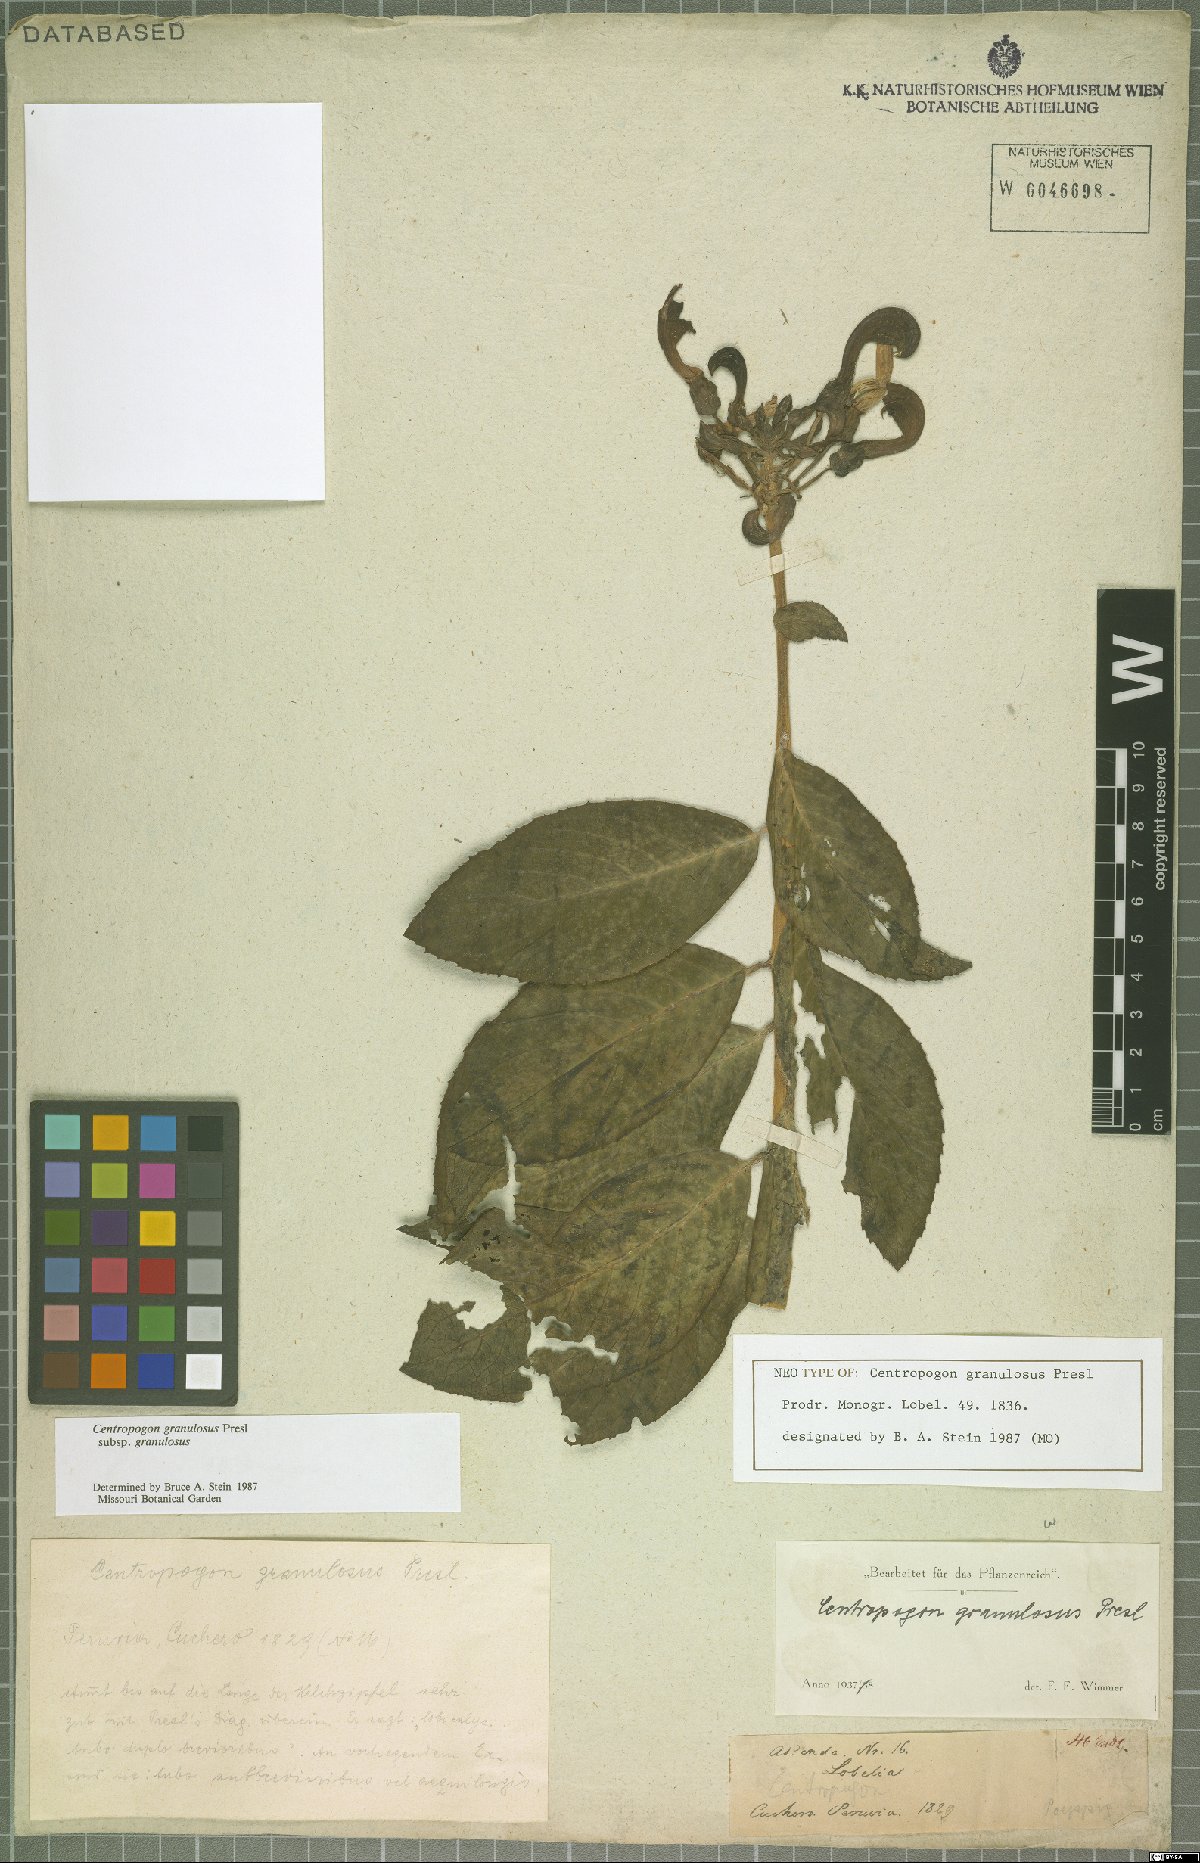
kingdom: Plantae
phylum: Tracheophyta
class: Magnoliopsida
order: Asterales
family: Campanulaceae
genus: Centropogon
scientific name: Centropogon granulosus
